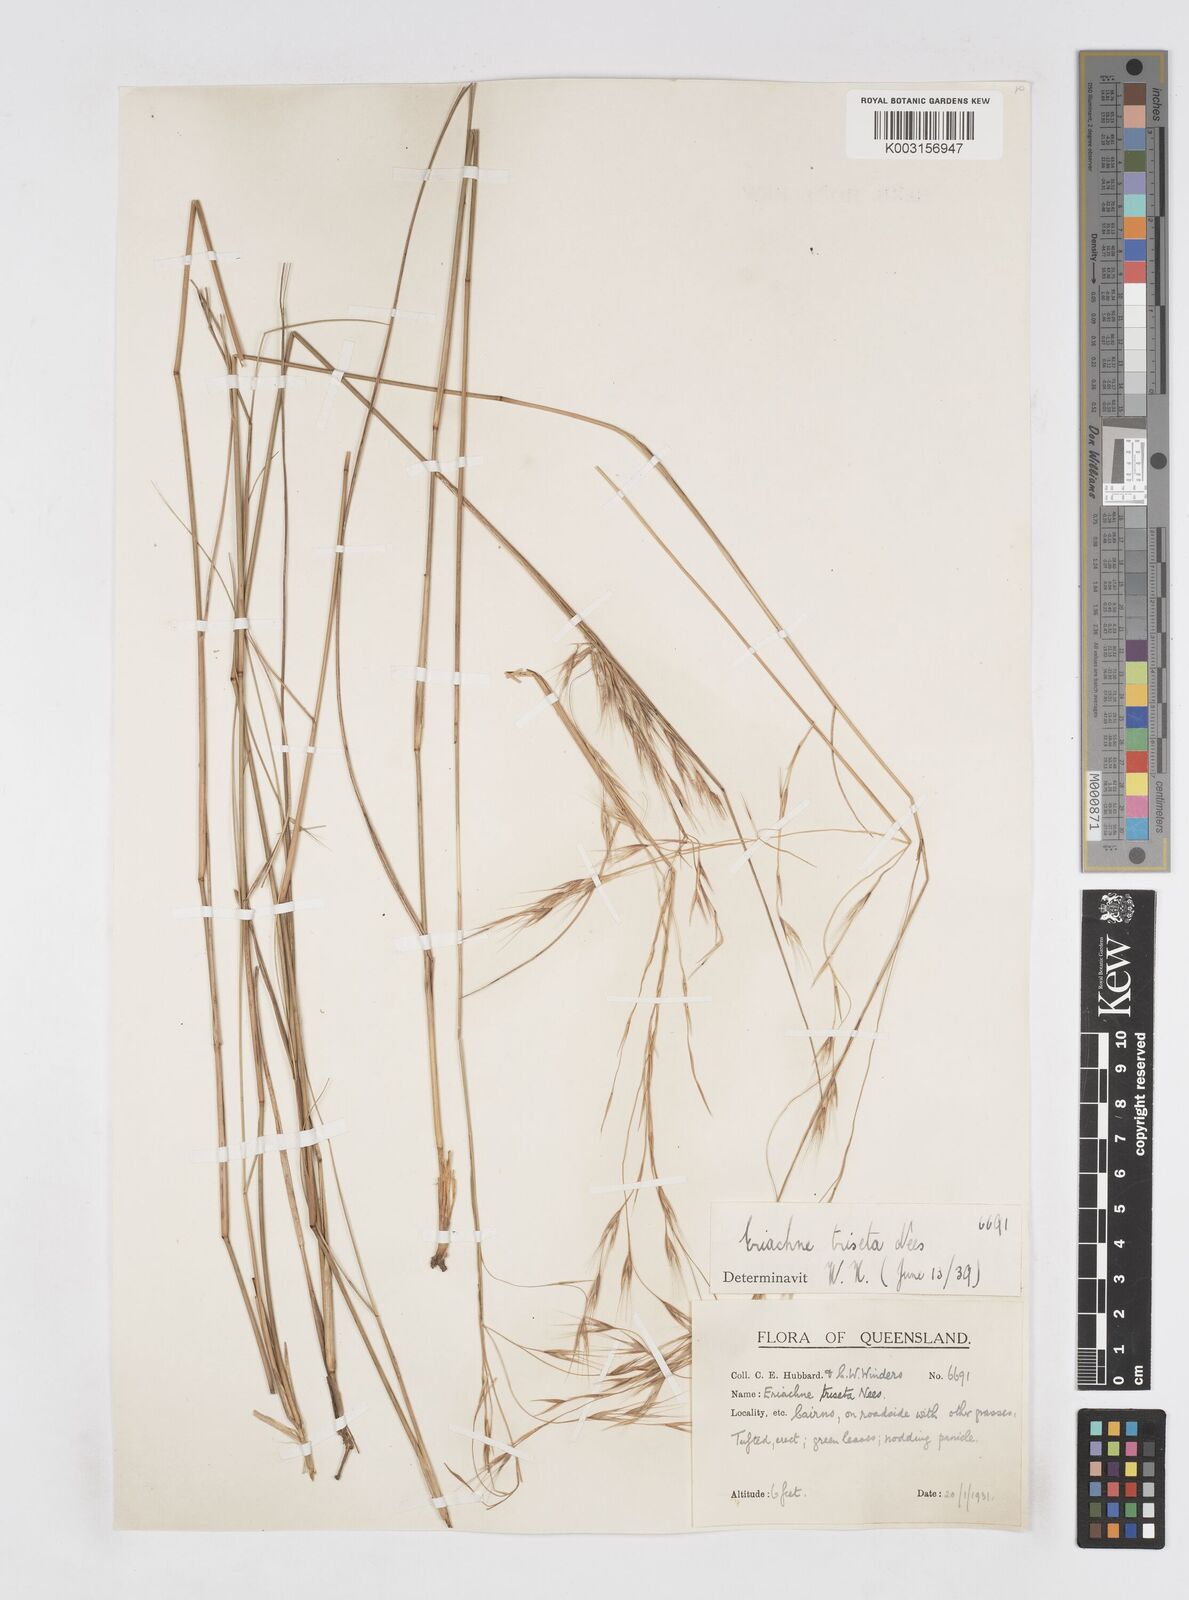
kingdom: Plantae
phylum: Tracheophyta
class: Liliopsida
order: Poales
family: Poaceae
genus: Eriachne
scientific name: Eriachne triseta
